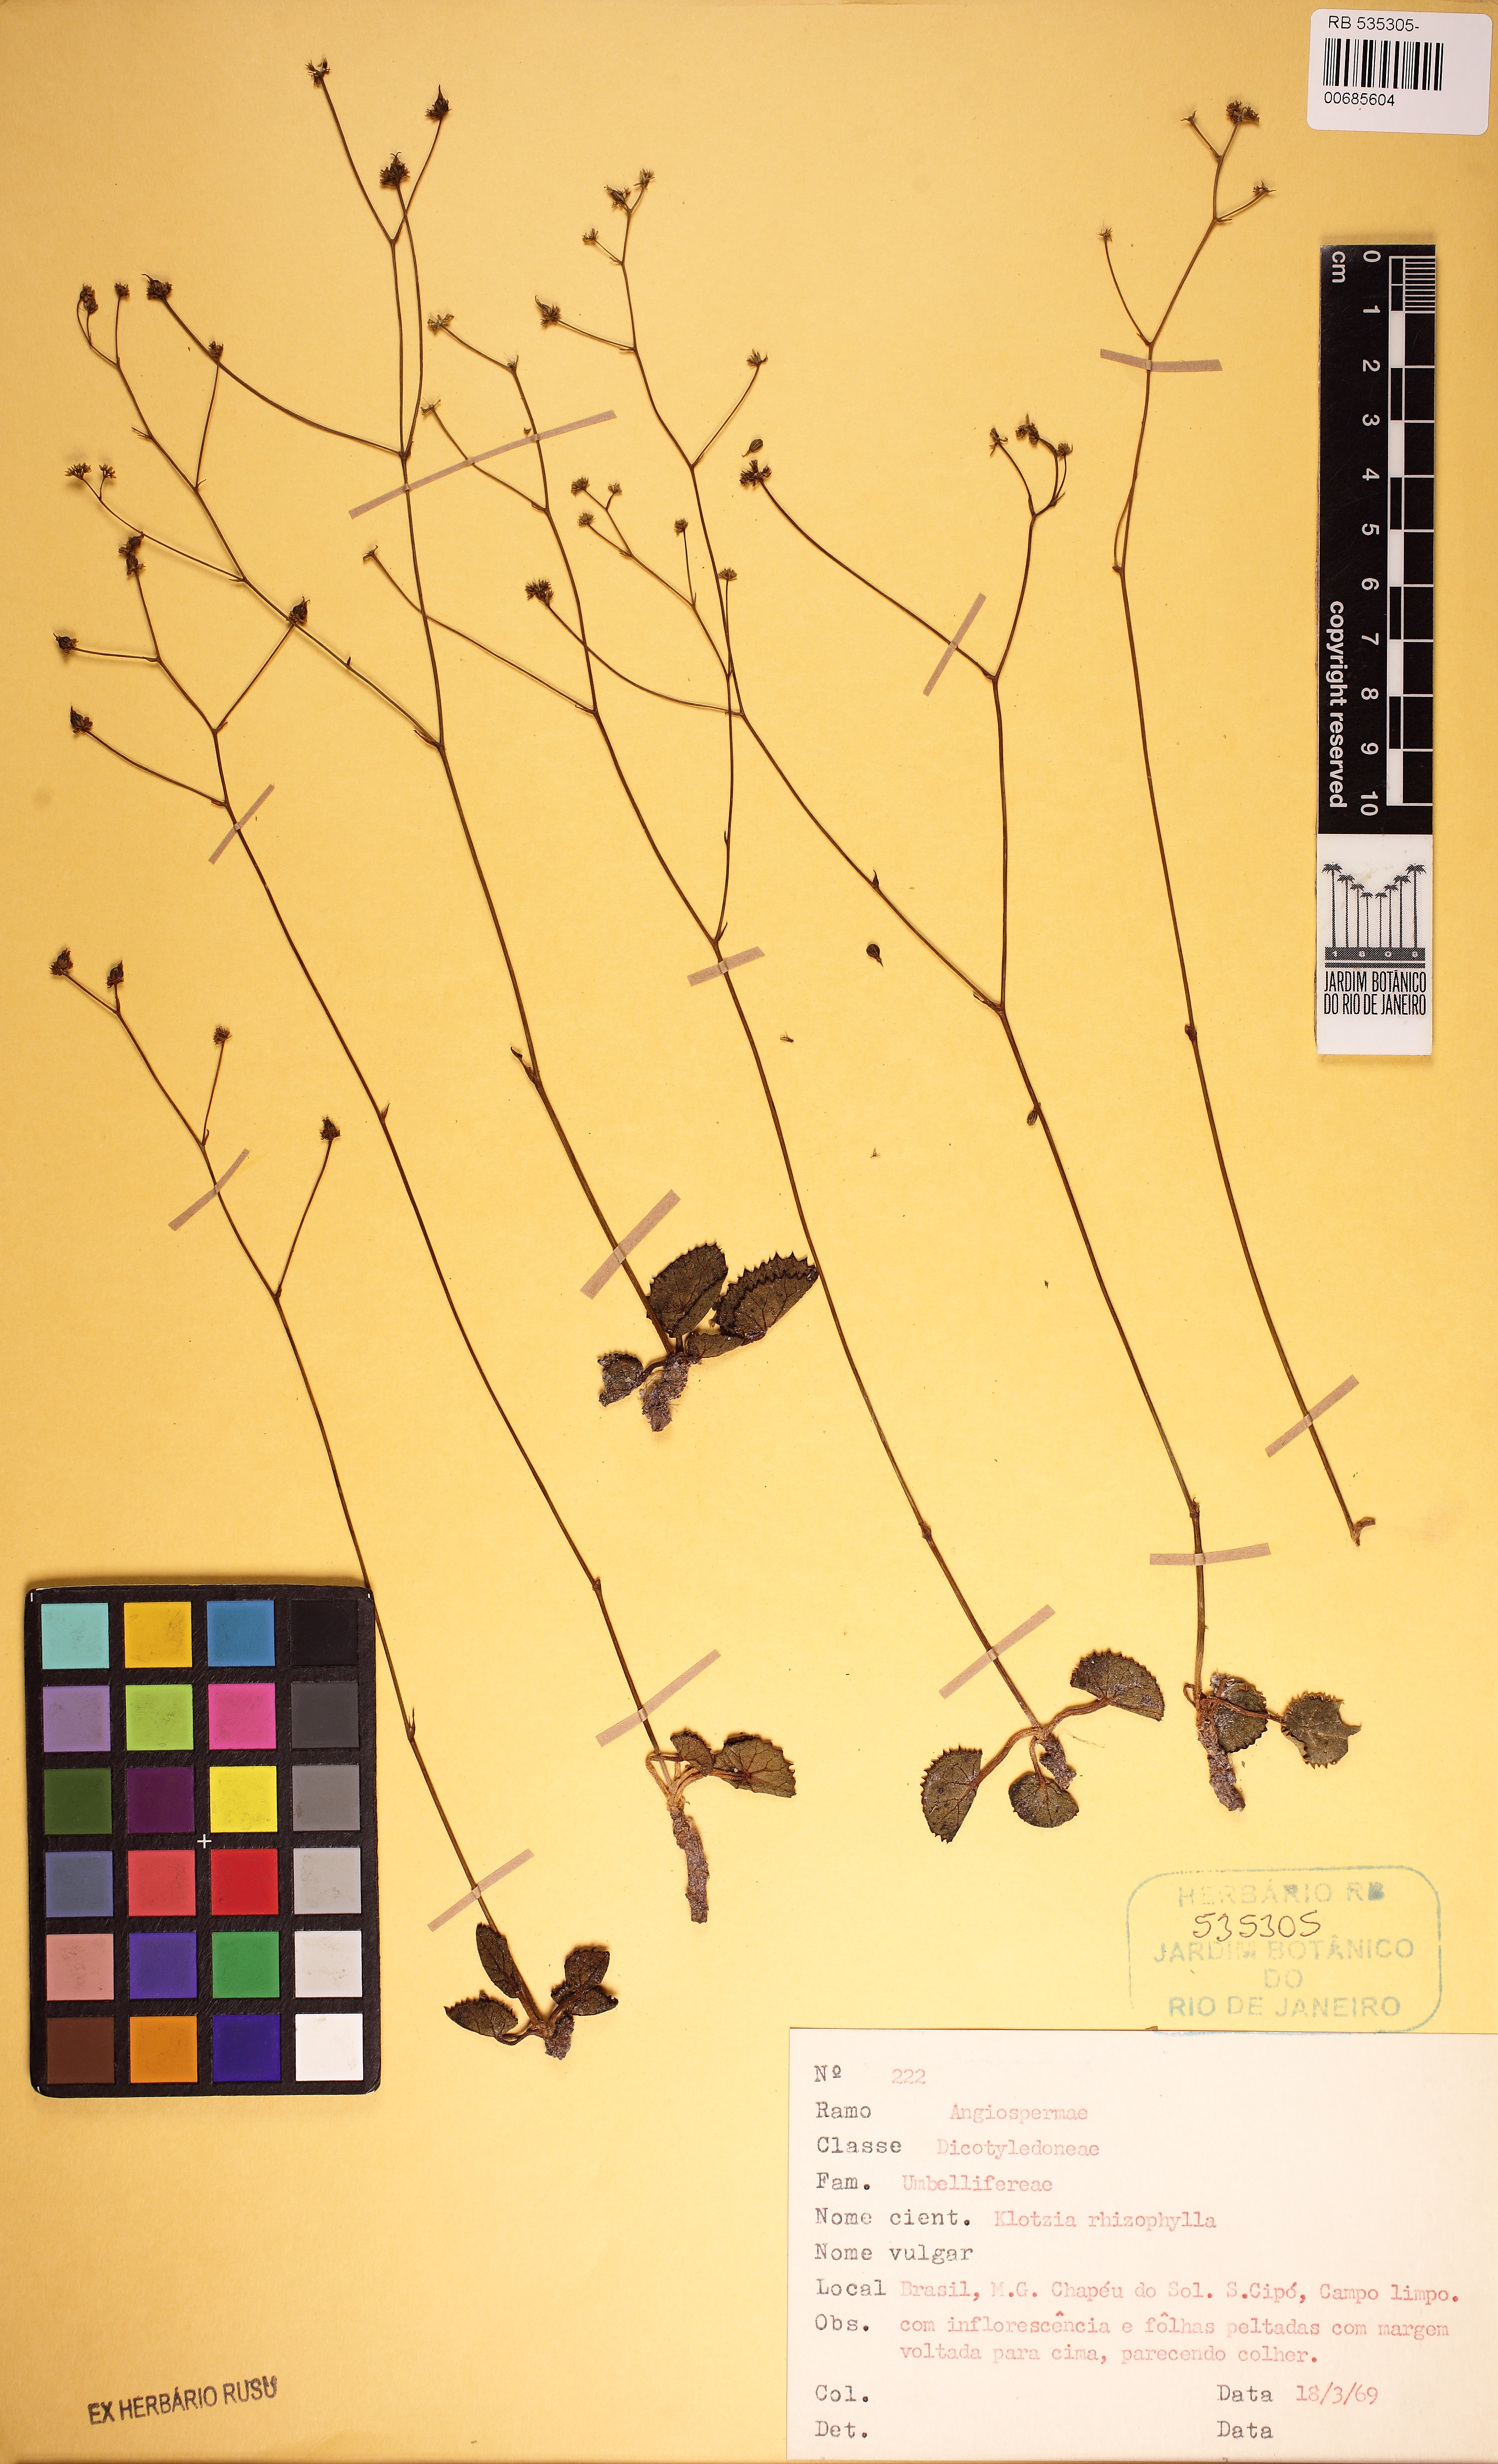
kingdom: Plantae
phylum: Tracheophyta
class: Magnoliopsida
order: Apiales
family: Apiaceae
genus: Klotzschia
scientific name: Klotzschia rhizophylla
